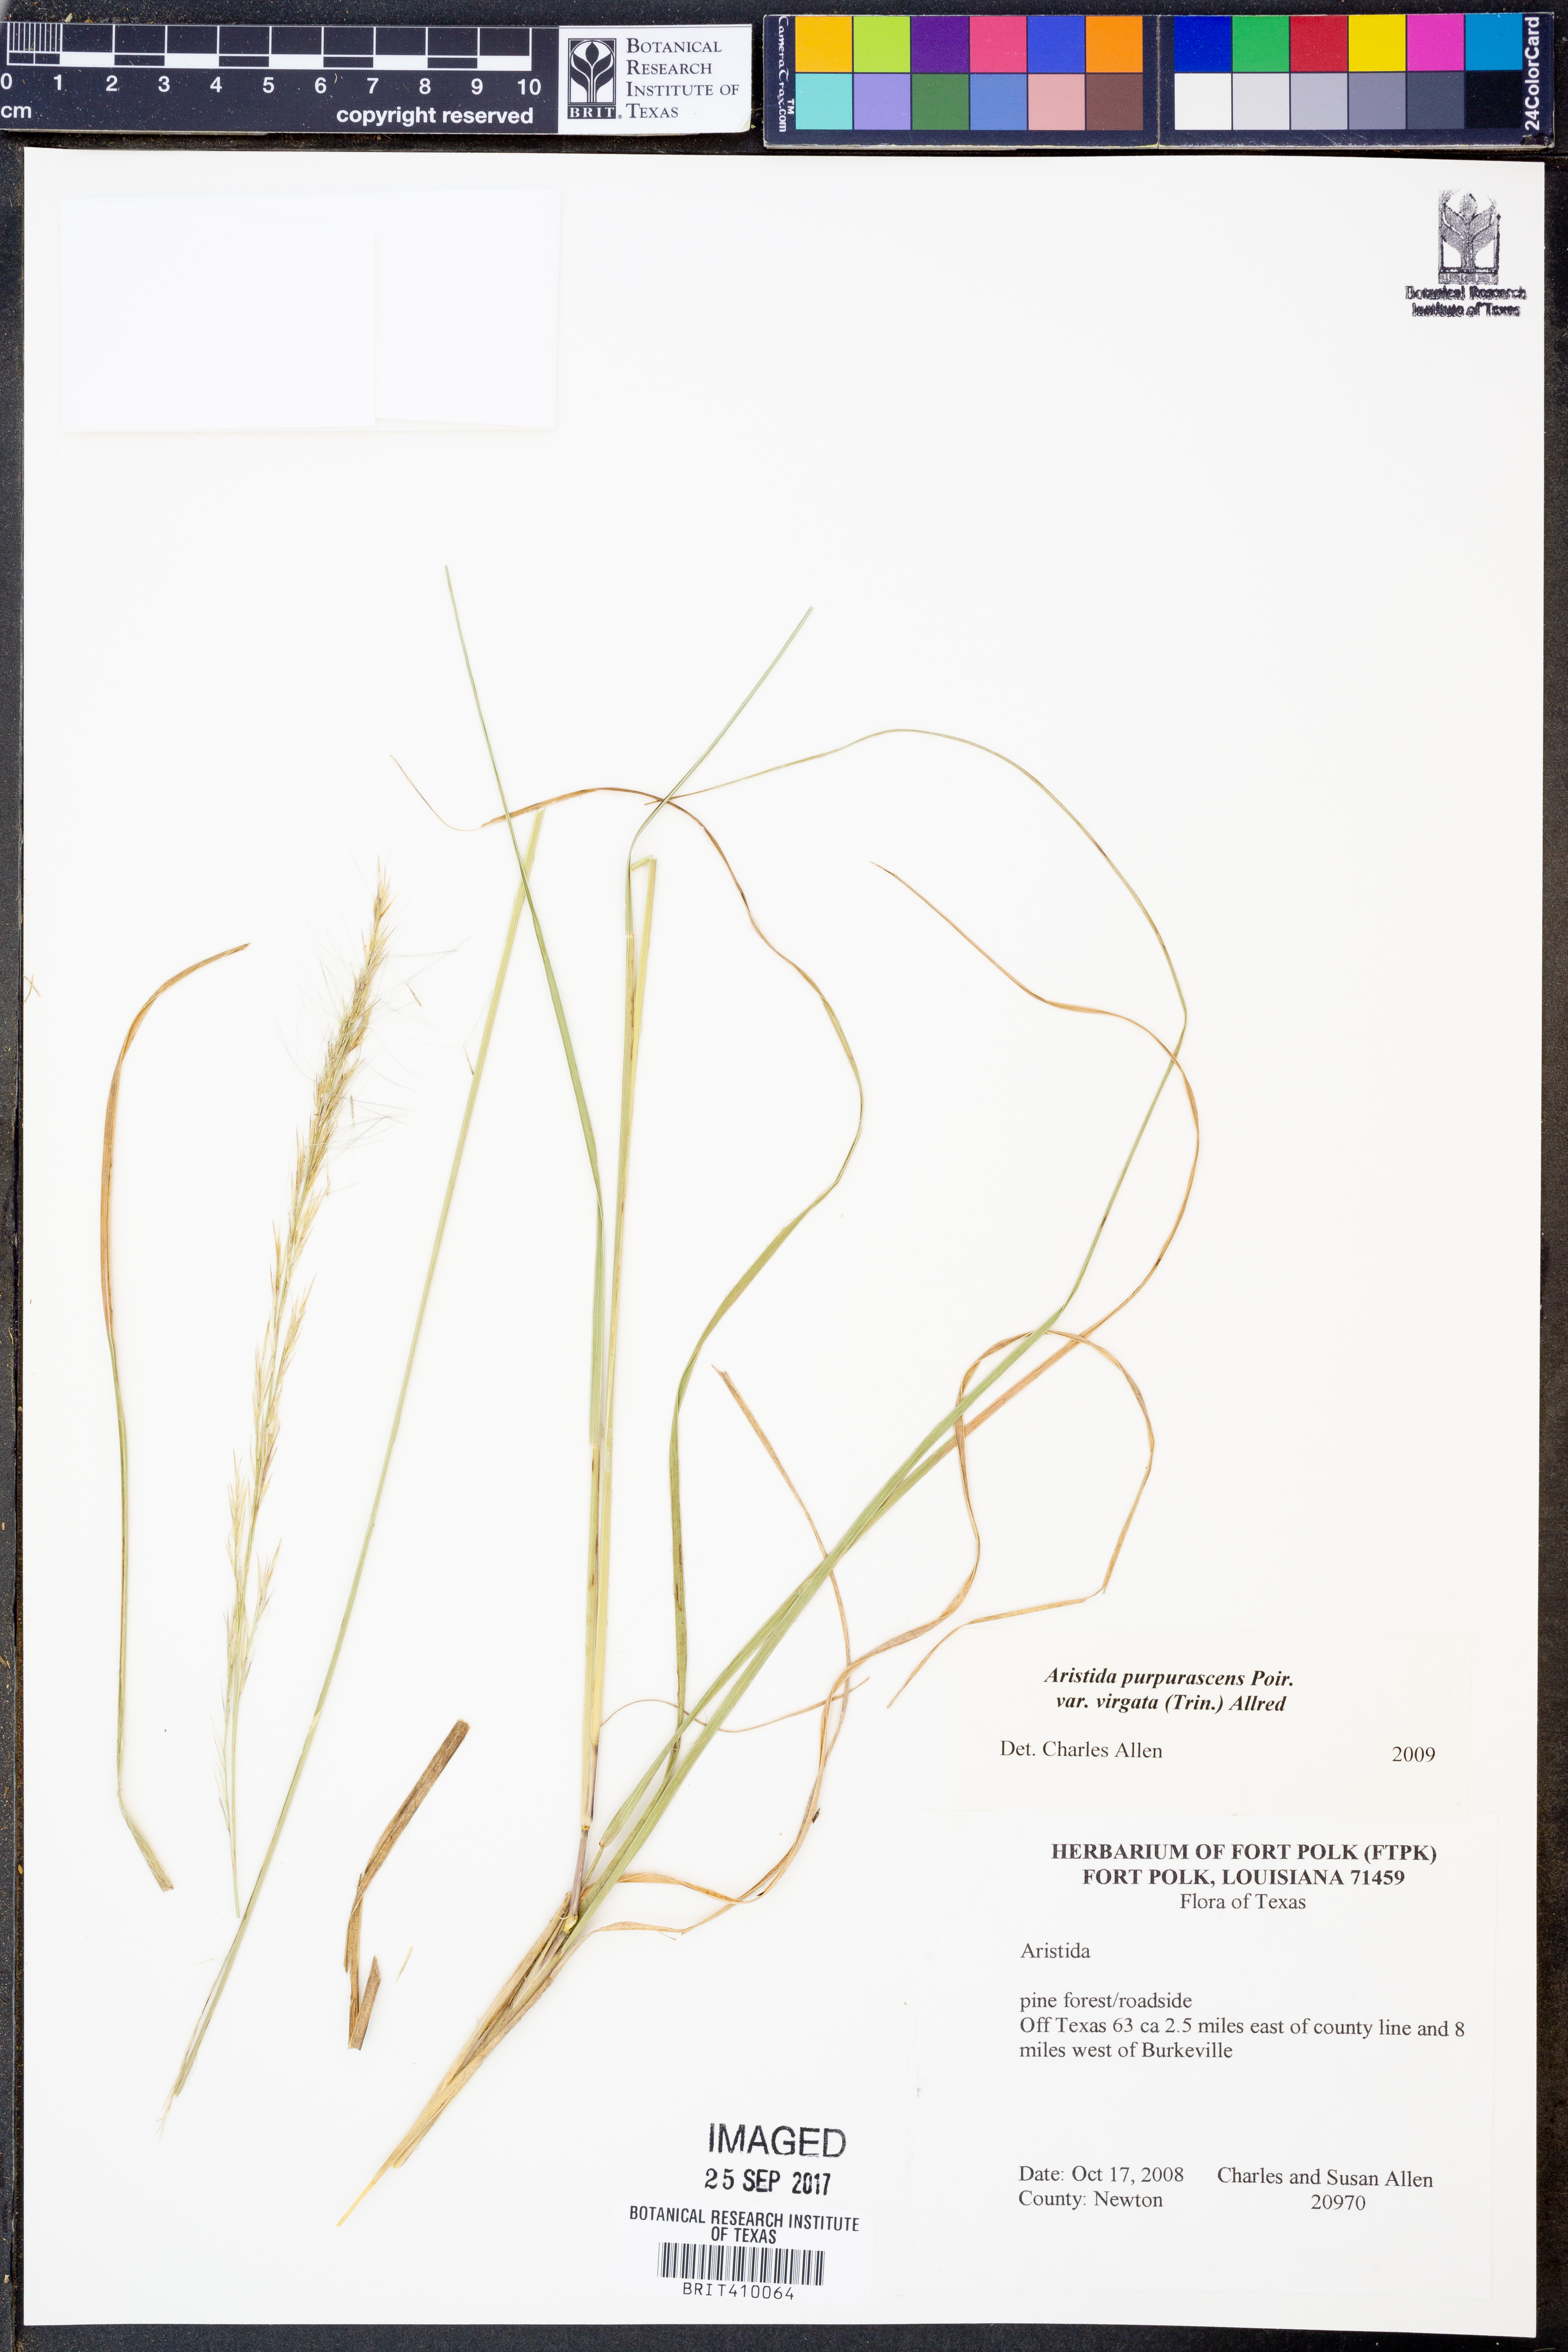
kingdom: Plantae
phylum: Tracheophyta
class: Liliopsida
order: Poales
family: Poaceae
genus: Aristida
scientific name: Aristida virgata
